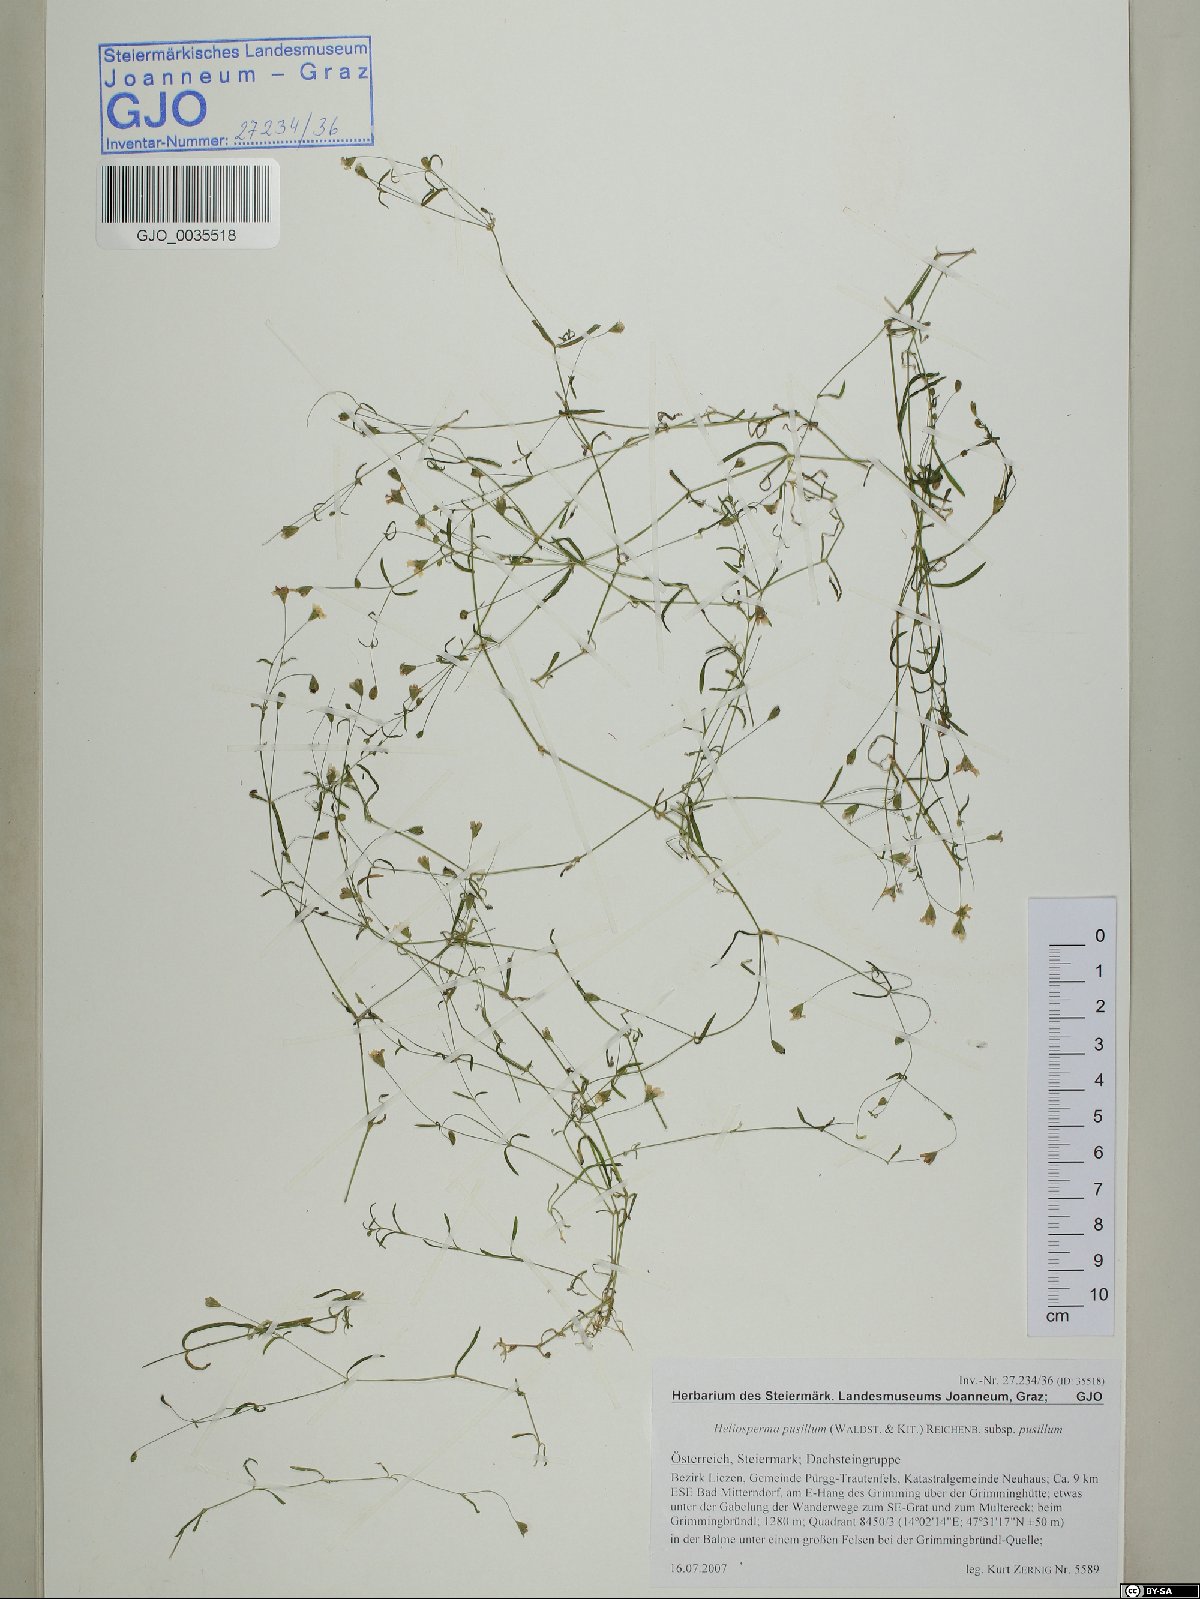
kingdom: Plantae
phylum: Tracheophyta
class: Magnoliopsida
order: Caryophyllales
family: Caryophyllaceae
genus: Heliosperma
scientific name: Heliosperma pusillum
